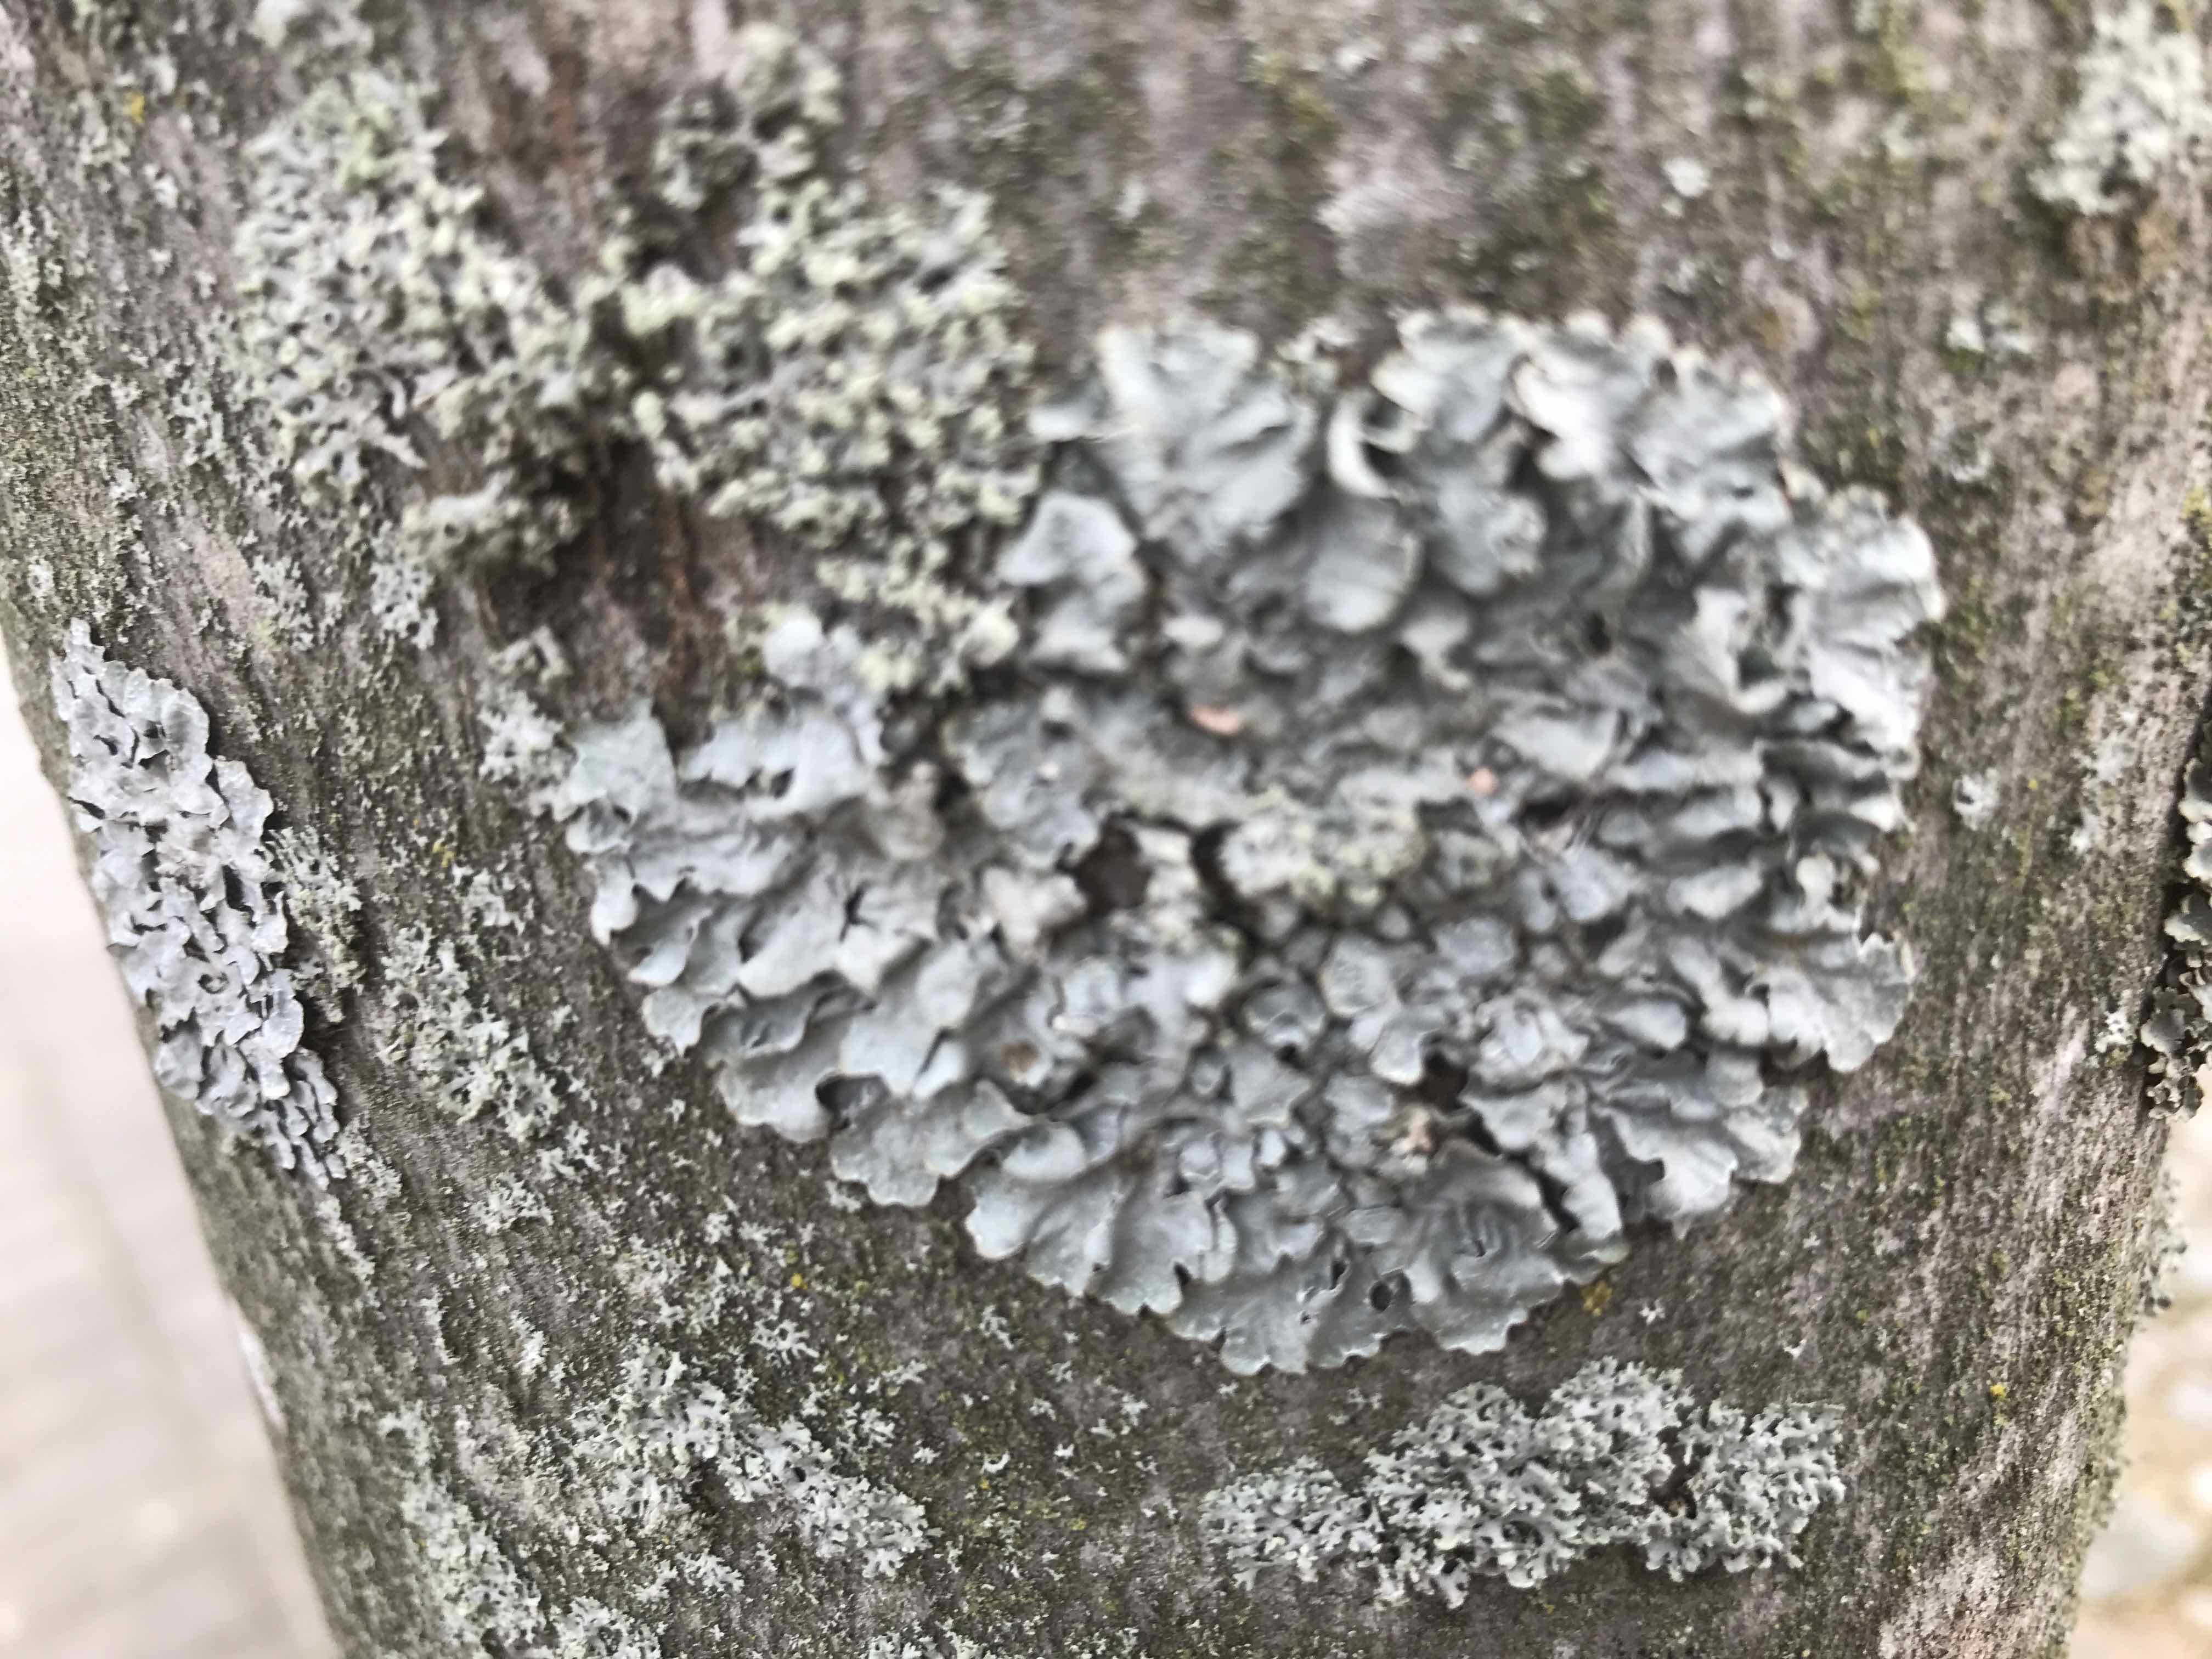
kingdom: Fungi
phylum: Ascomycota
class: Lecanoromycetes
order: Lecanorales
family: Parmeliaceae
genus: Parmelia
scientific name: Parmelia sulcata
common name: rynket skållav
